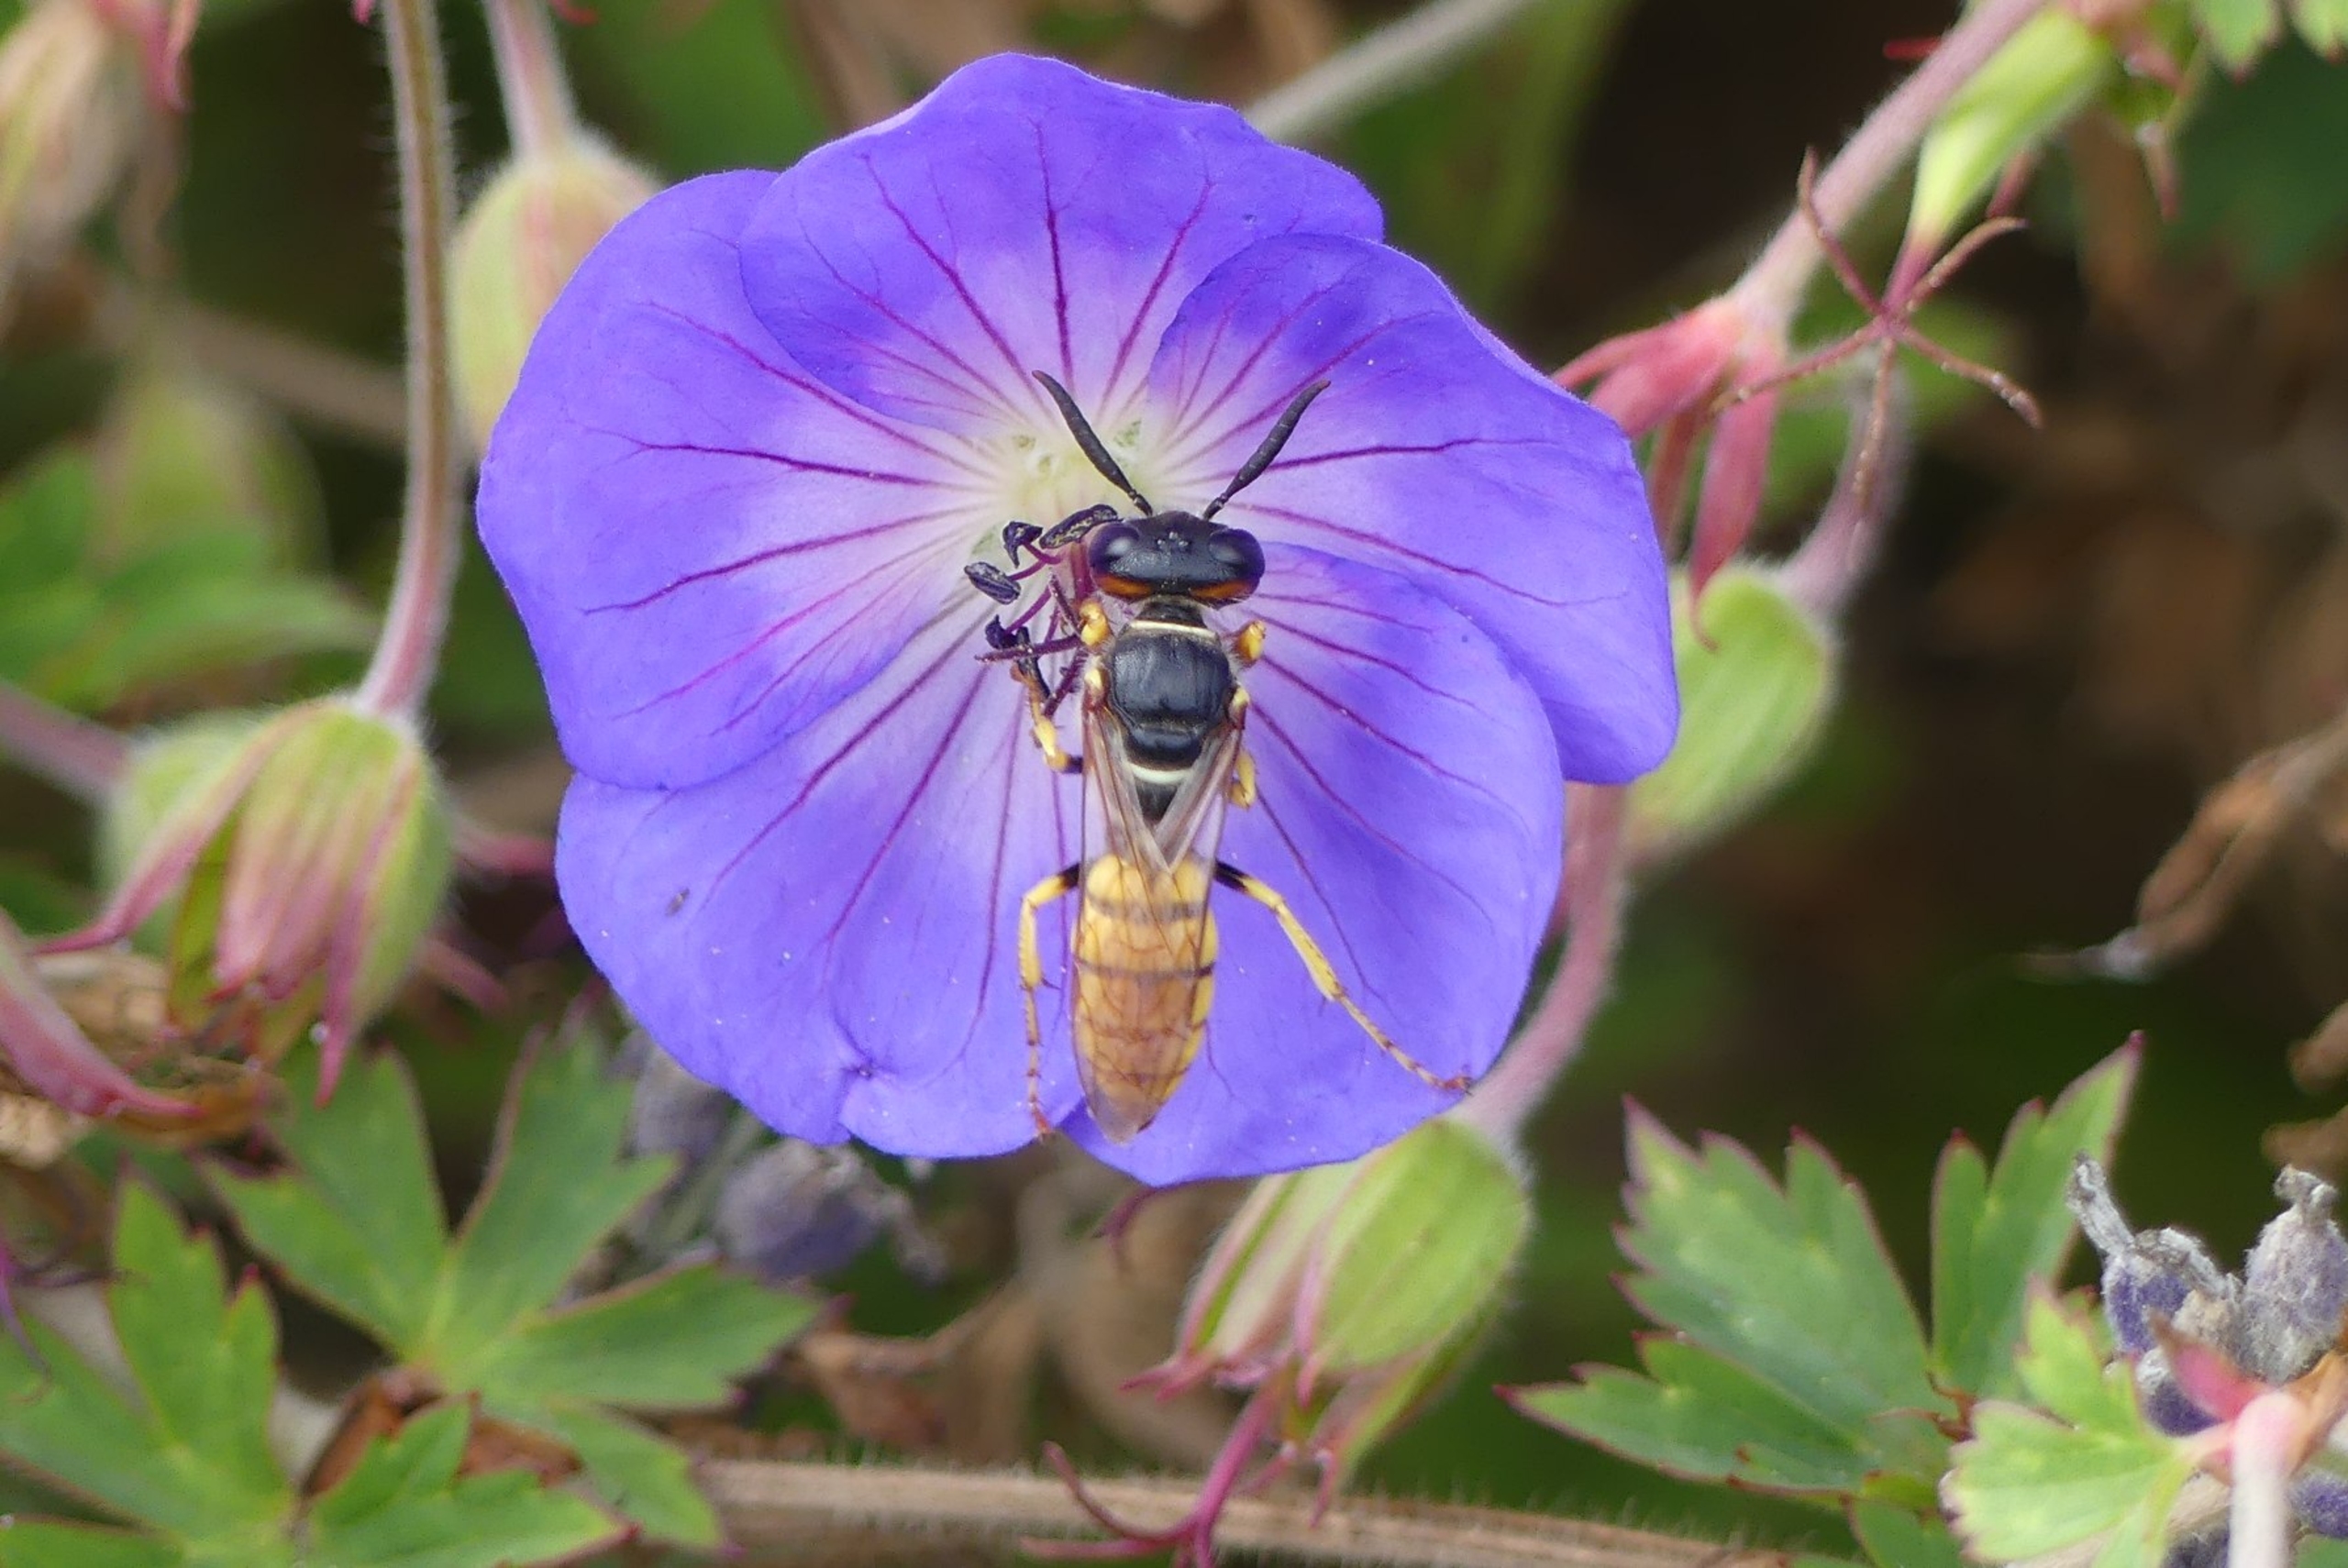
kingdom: Animalia
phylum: Arthropoda
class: Insecta
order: Hymenoptera
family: Crabronidae
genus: Philanthus
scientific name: Philanthus triangulum
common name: Biulv
